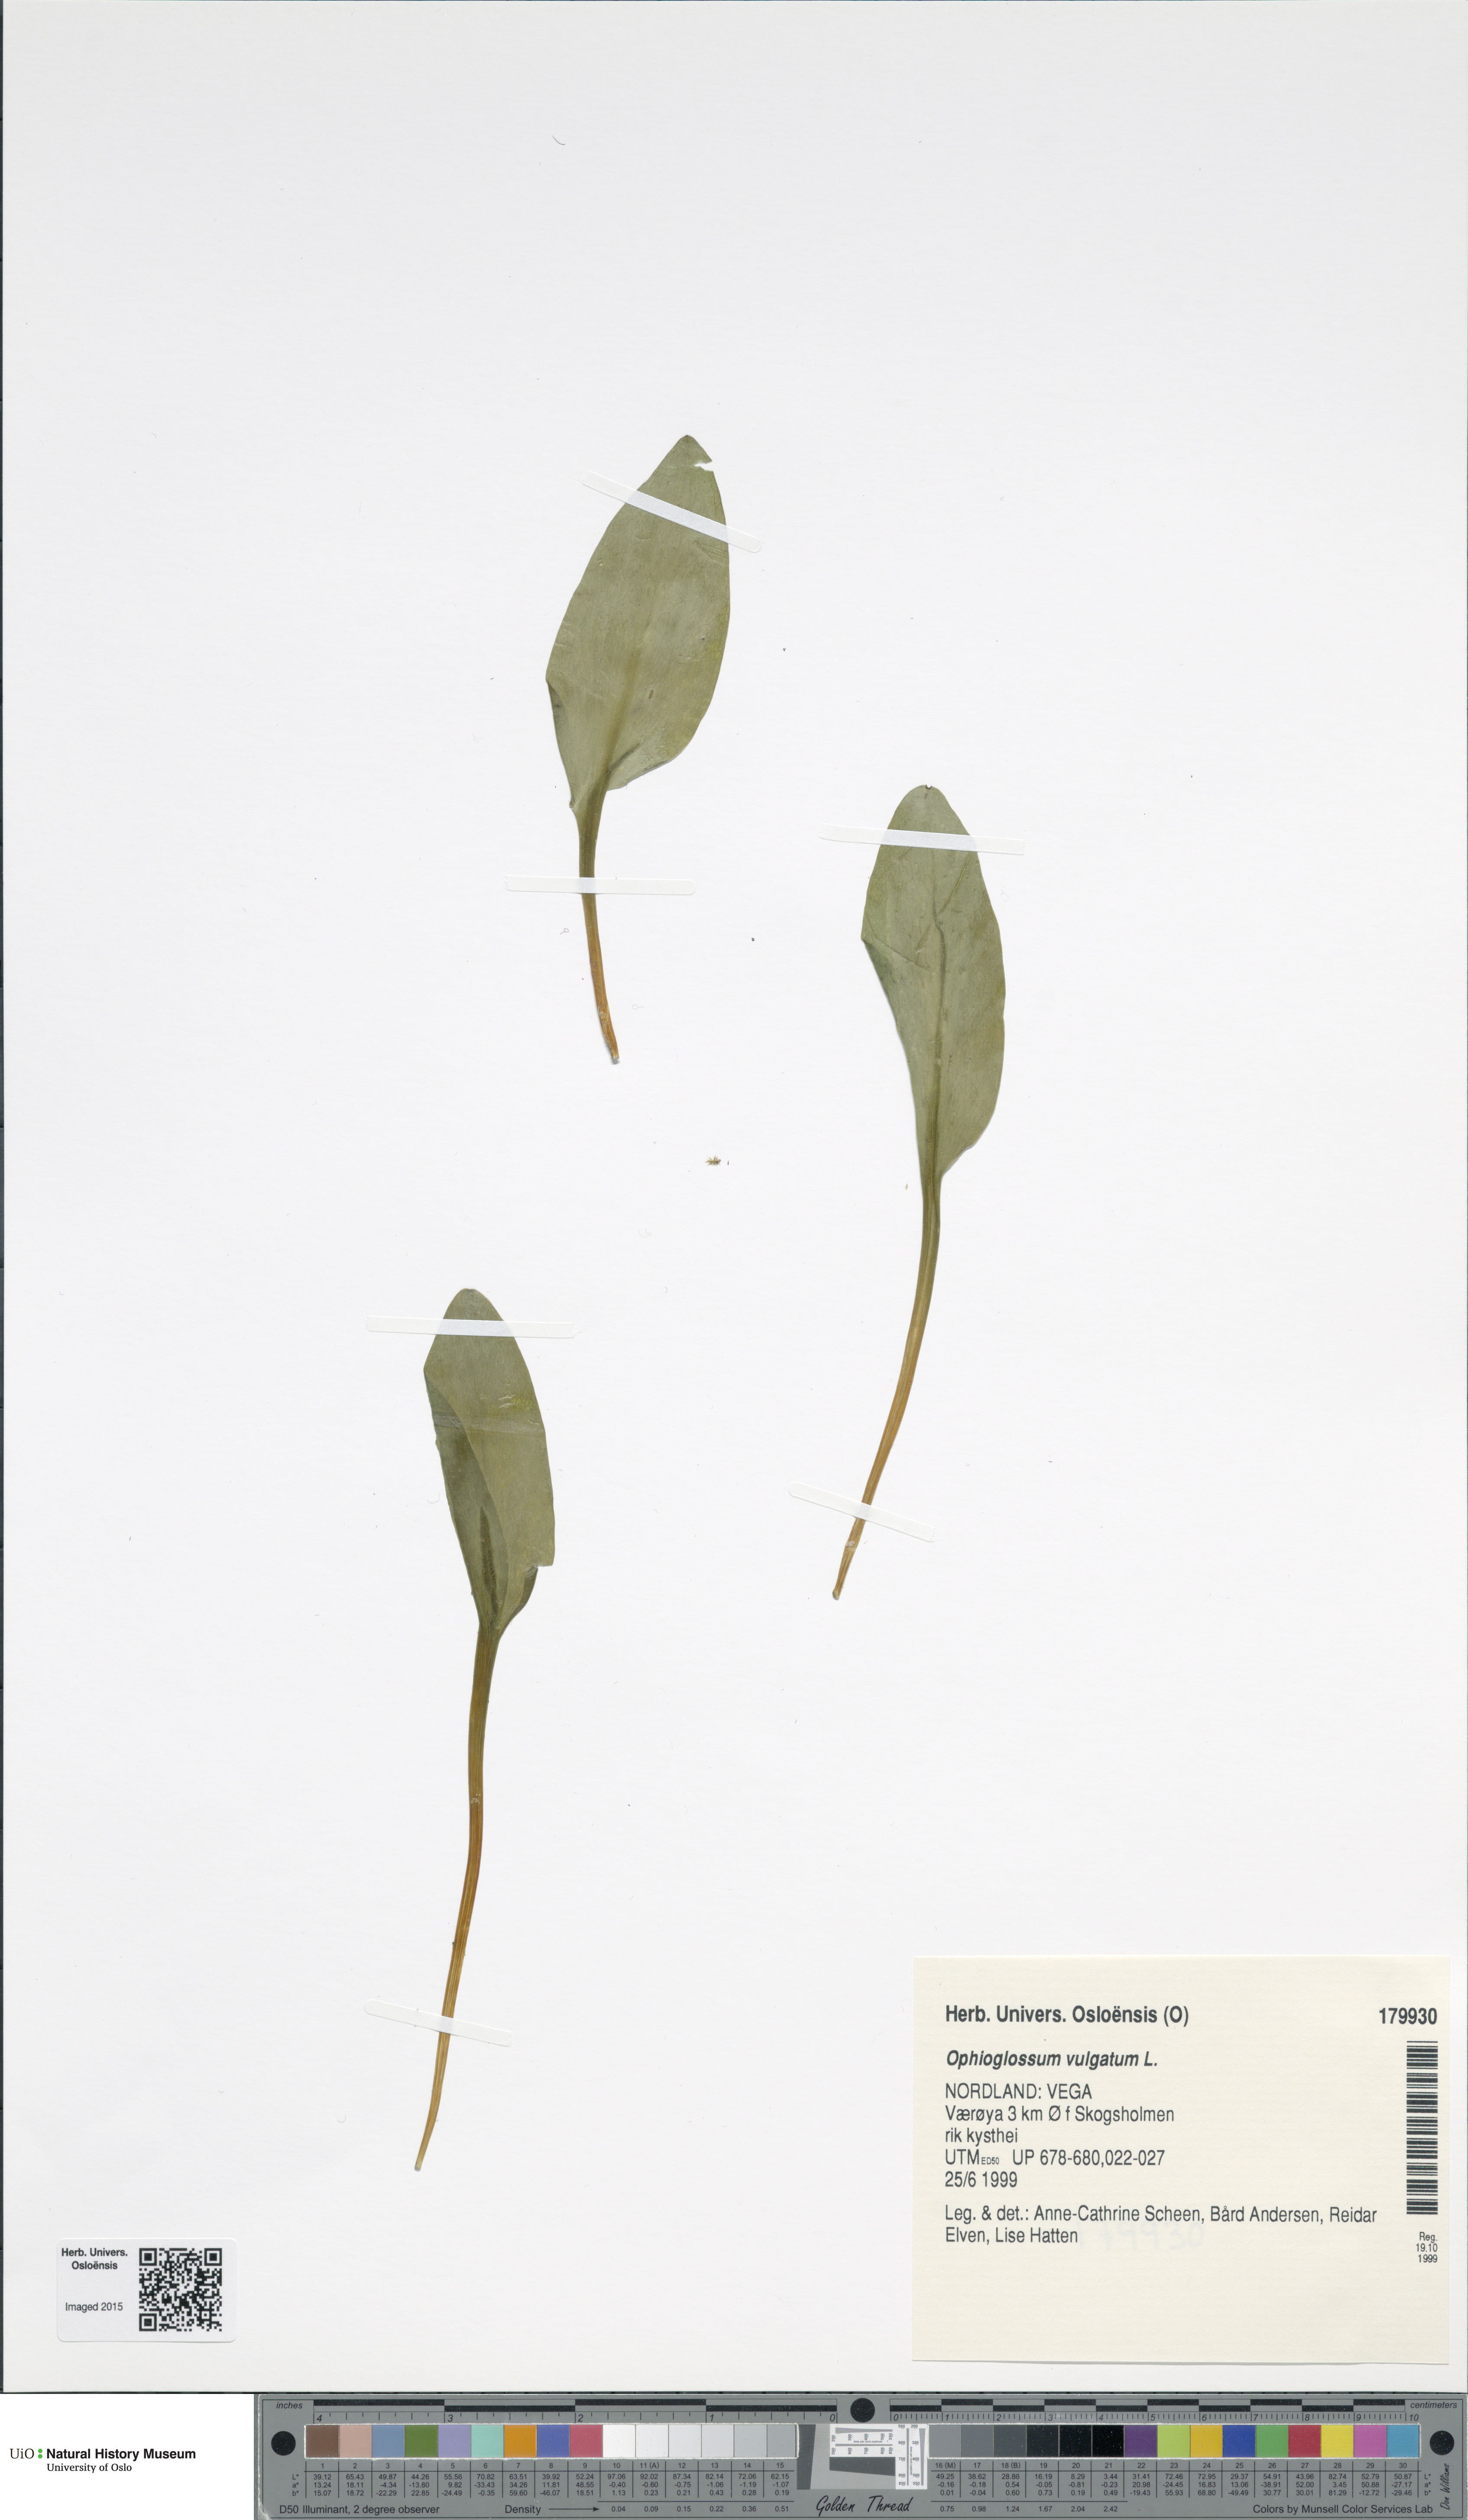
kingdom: Plantae
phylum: Tracheophyta
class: Polypodiopsida
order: Ophioglossales
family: Ophioglossaceae
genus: Ophioglossum
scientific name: Ophioglossum vulgatum
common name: Adder's-tongue
